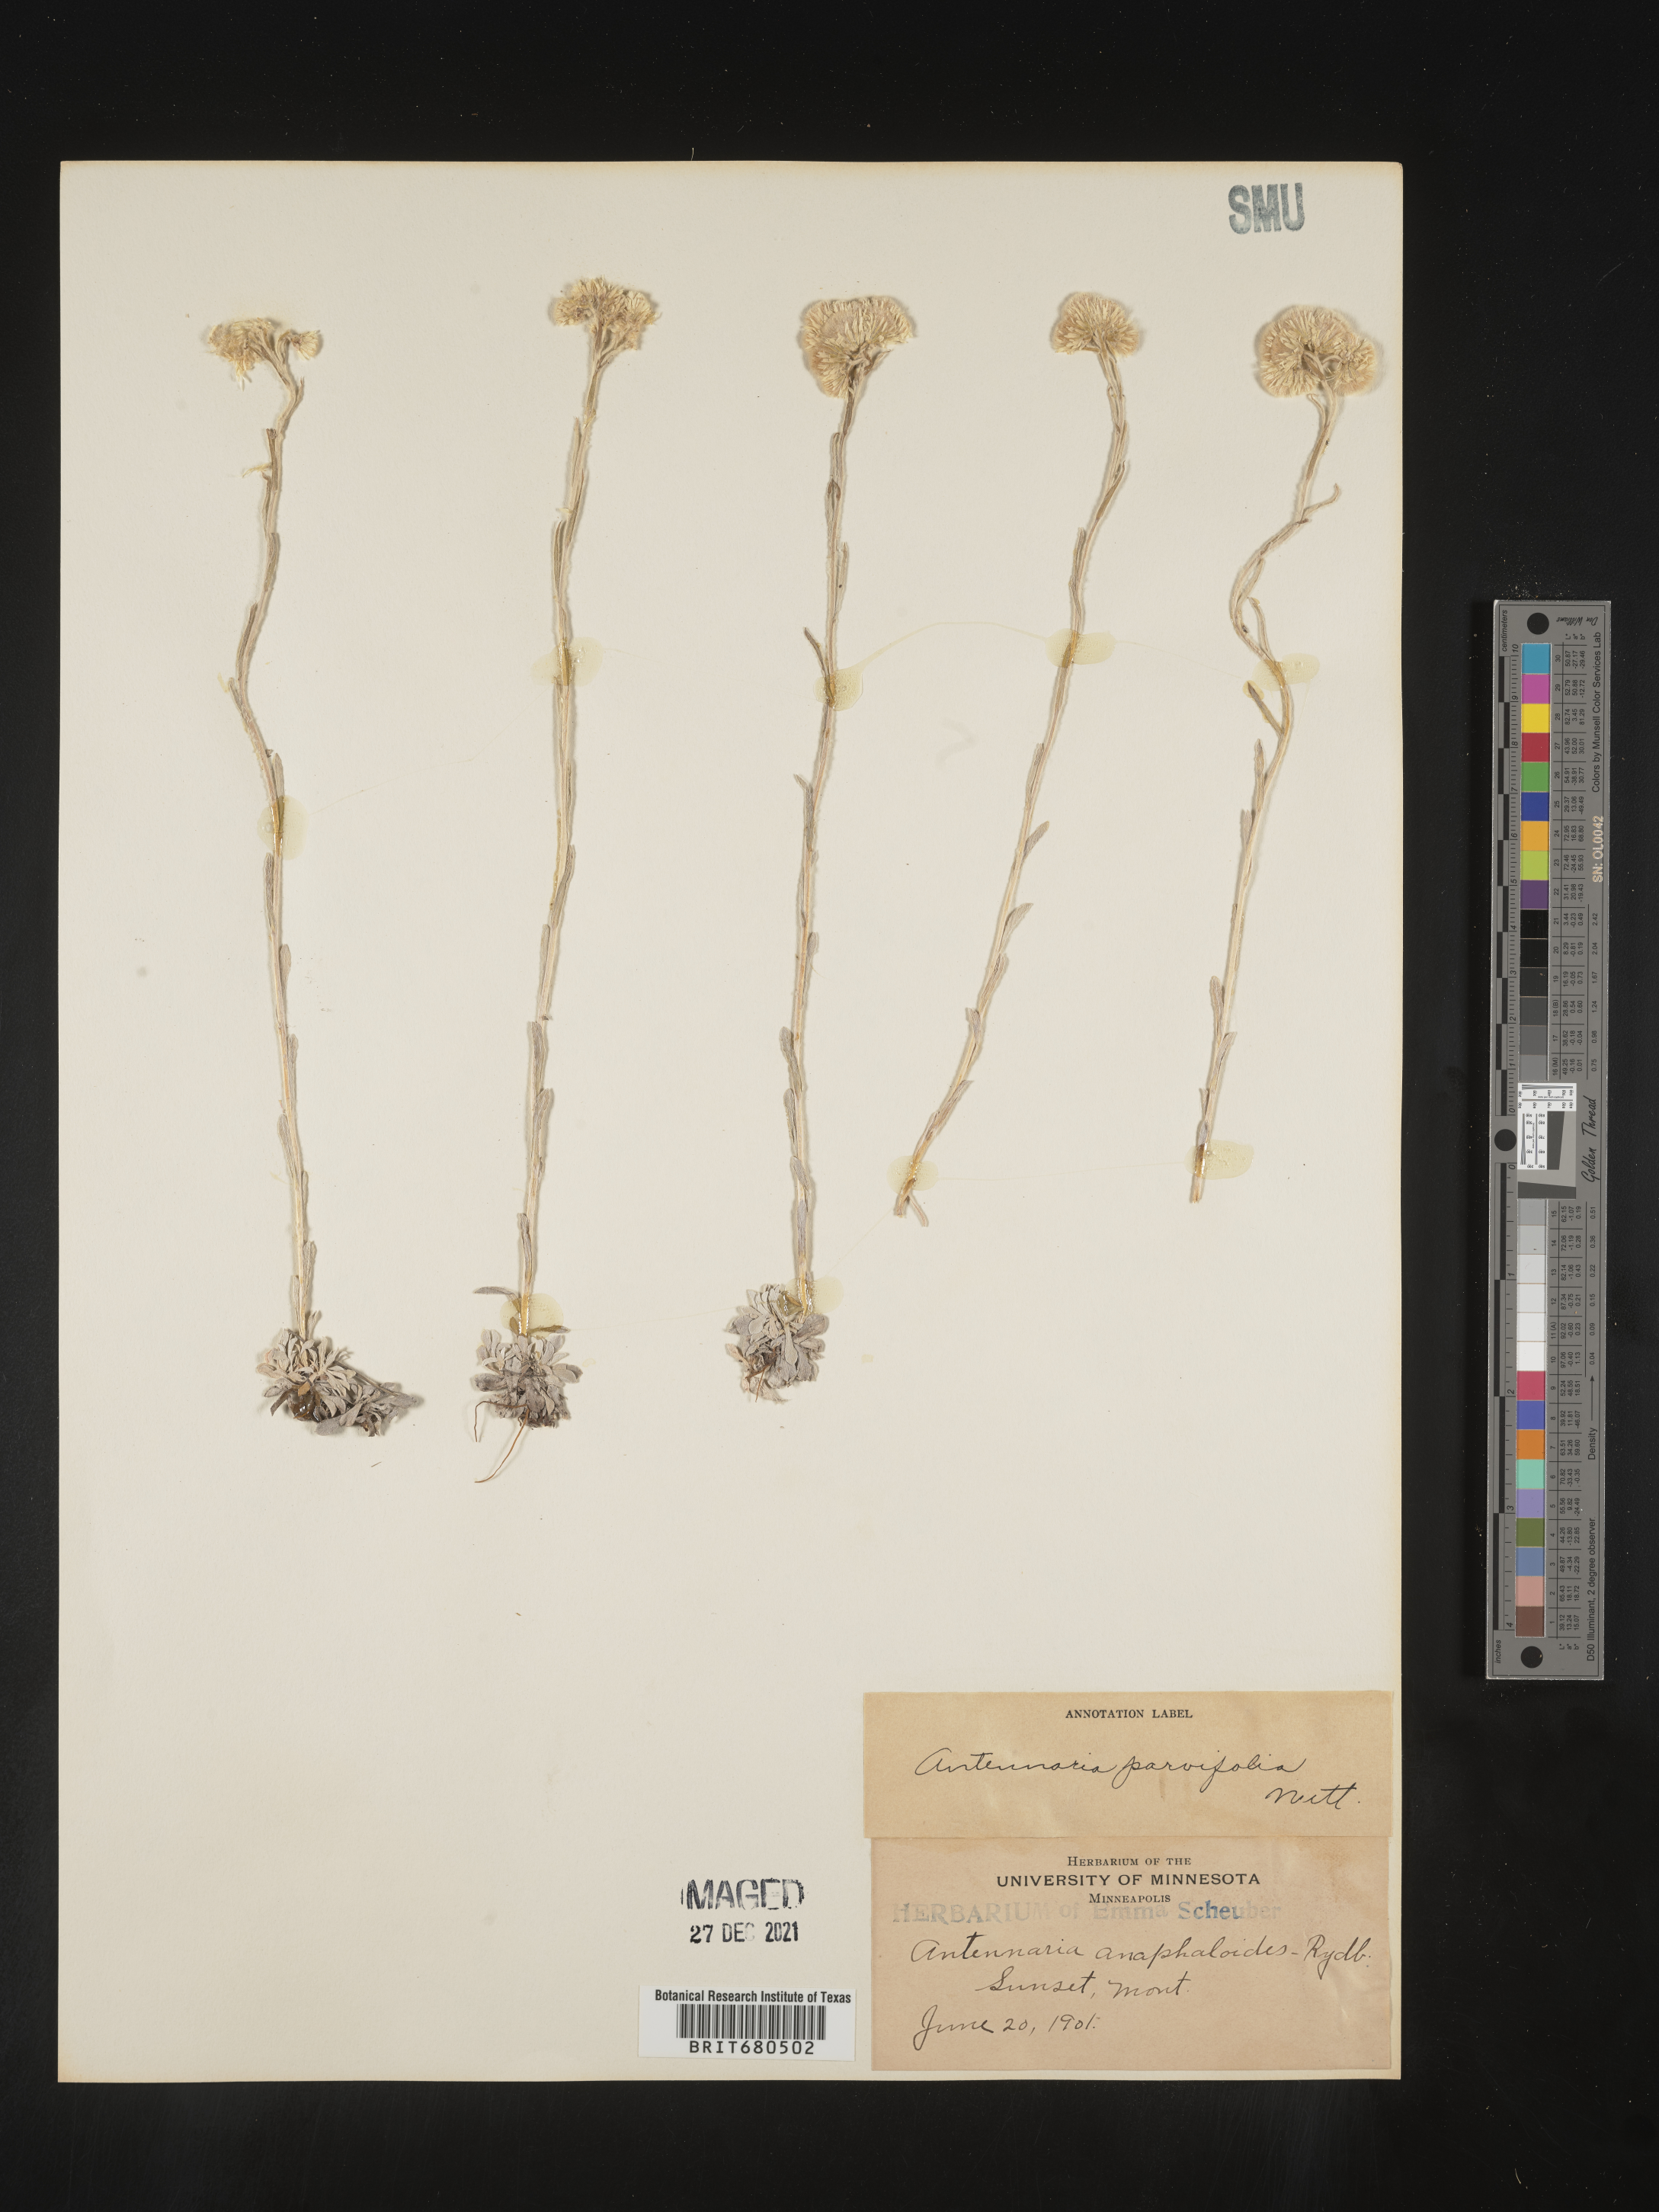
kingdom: Plantae
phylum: Tracheophyta
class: Magnoliopsida
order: Asterales
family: Asteraceae
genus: Antennaria
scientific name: Antennaria rosea
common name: Rosy pussytoes
